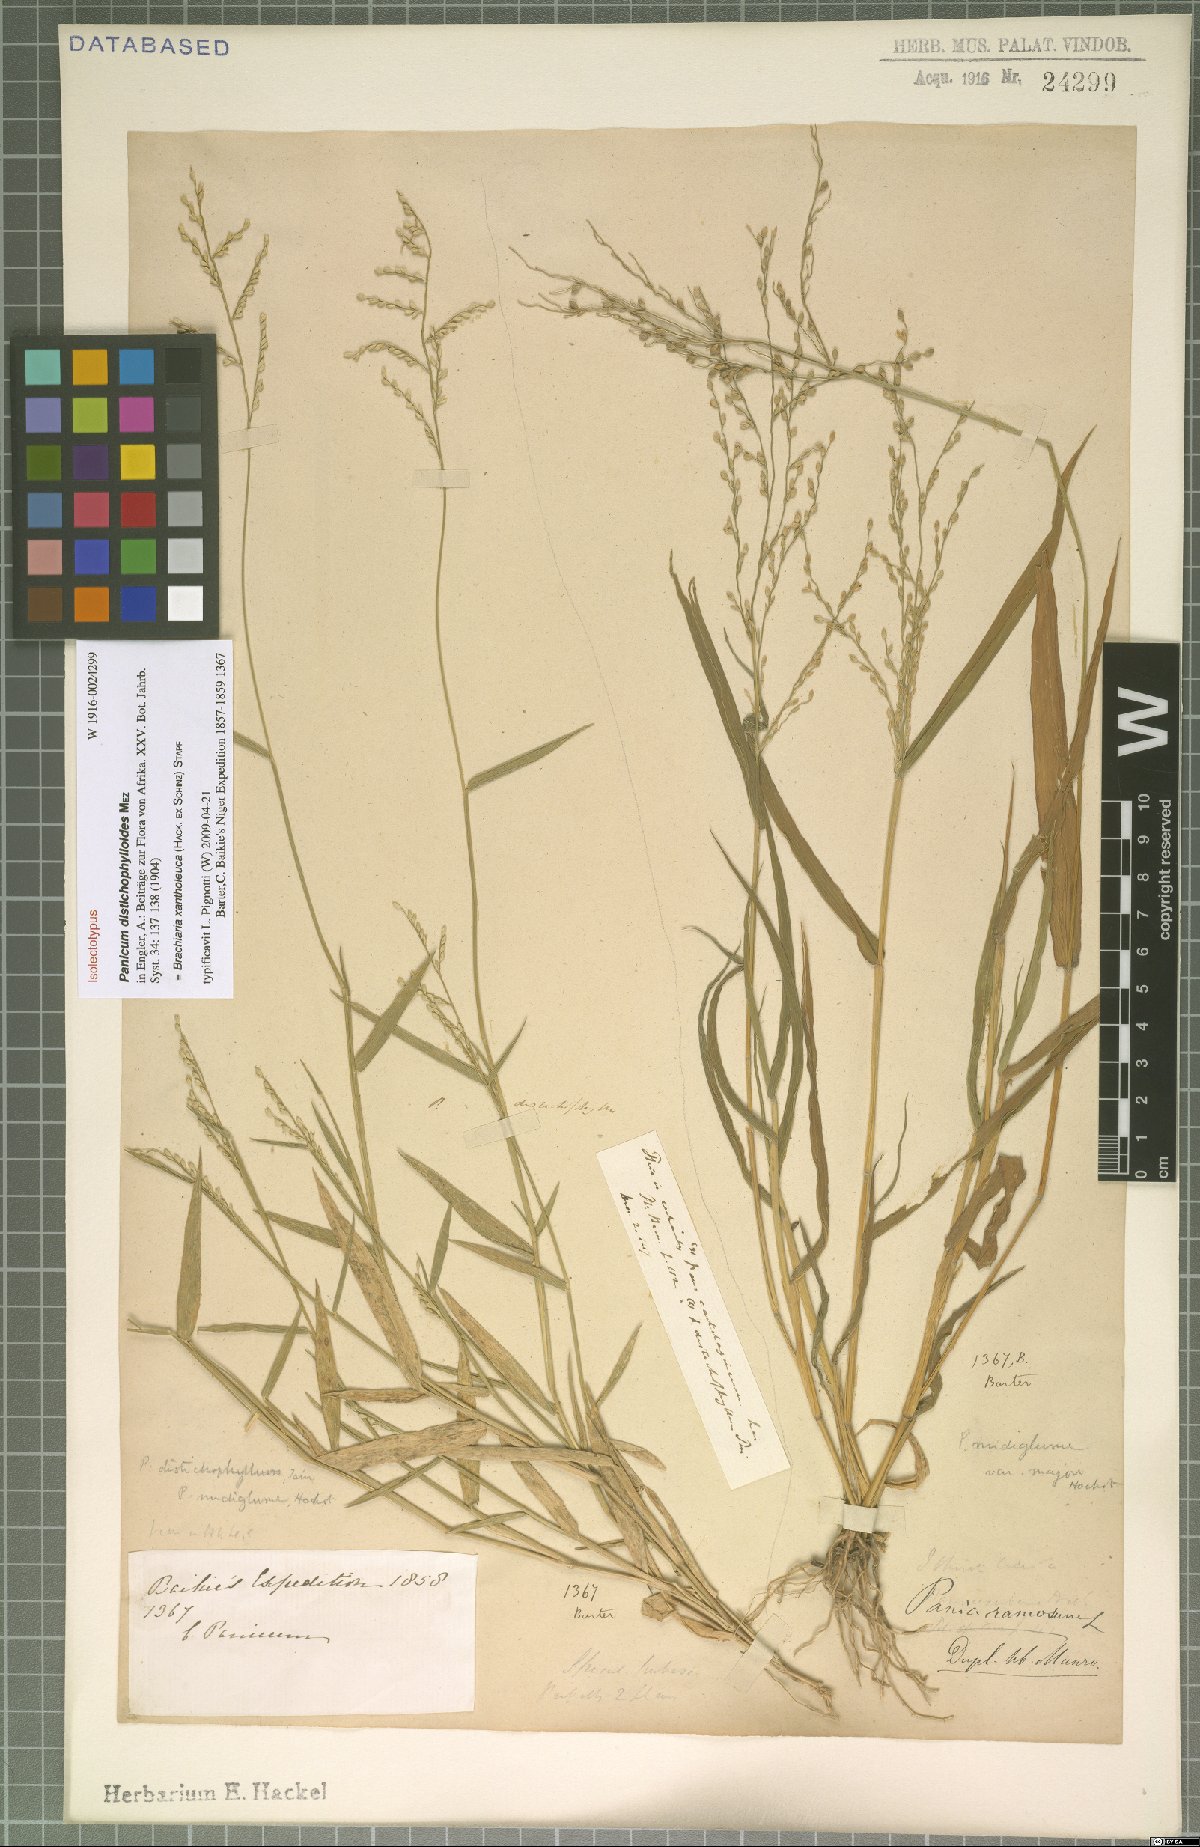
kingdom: Plantae
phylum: Tracheophyta
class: Liliopsida
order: Poales
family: Poaceae
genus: Urochloa
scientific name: Urochloa xantholeuca
